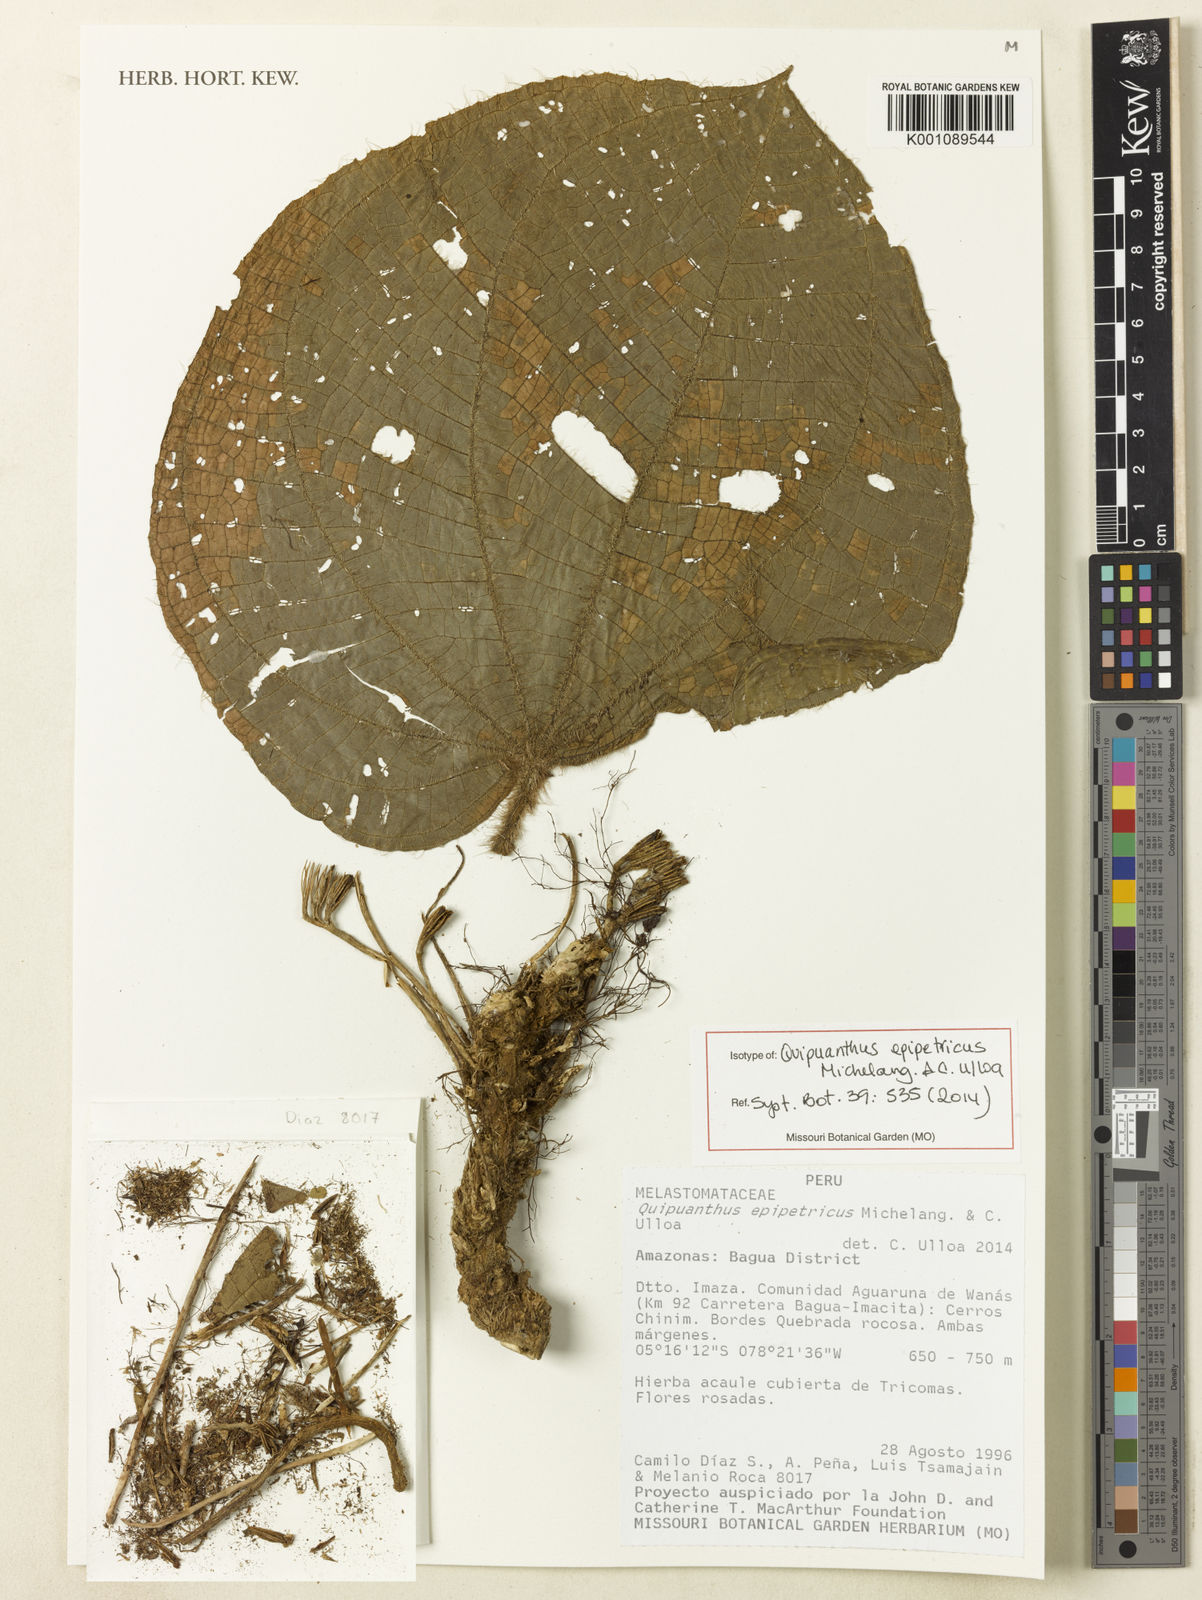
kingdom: Plantae
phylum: Tracheophyta
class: Magnoliopsida
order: Myrtales
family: Melastomataceae
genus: Quipuanthus
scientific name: Quipuanthus epipetricus
